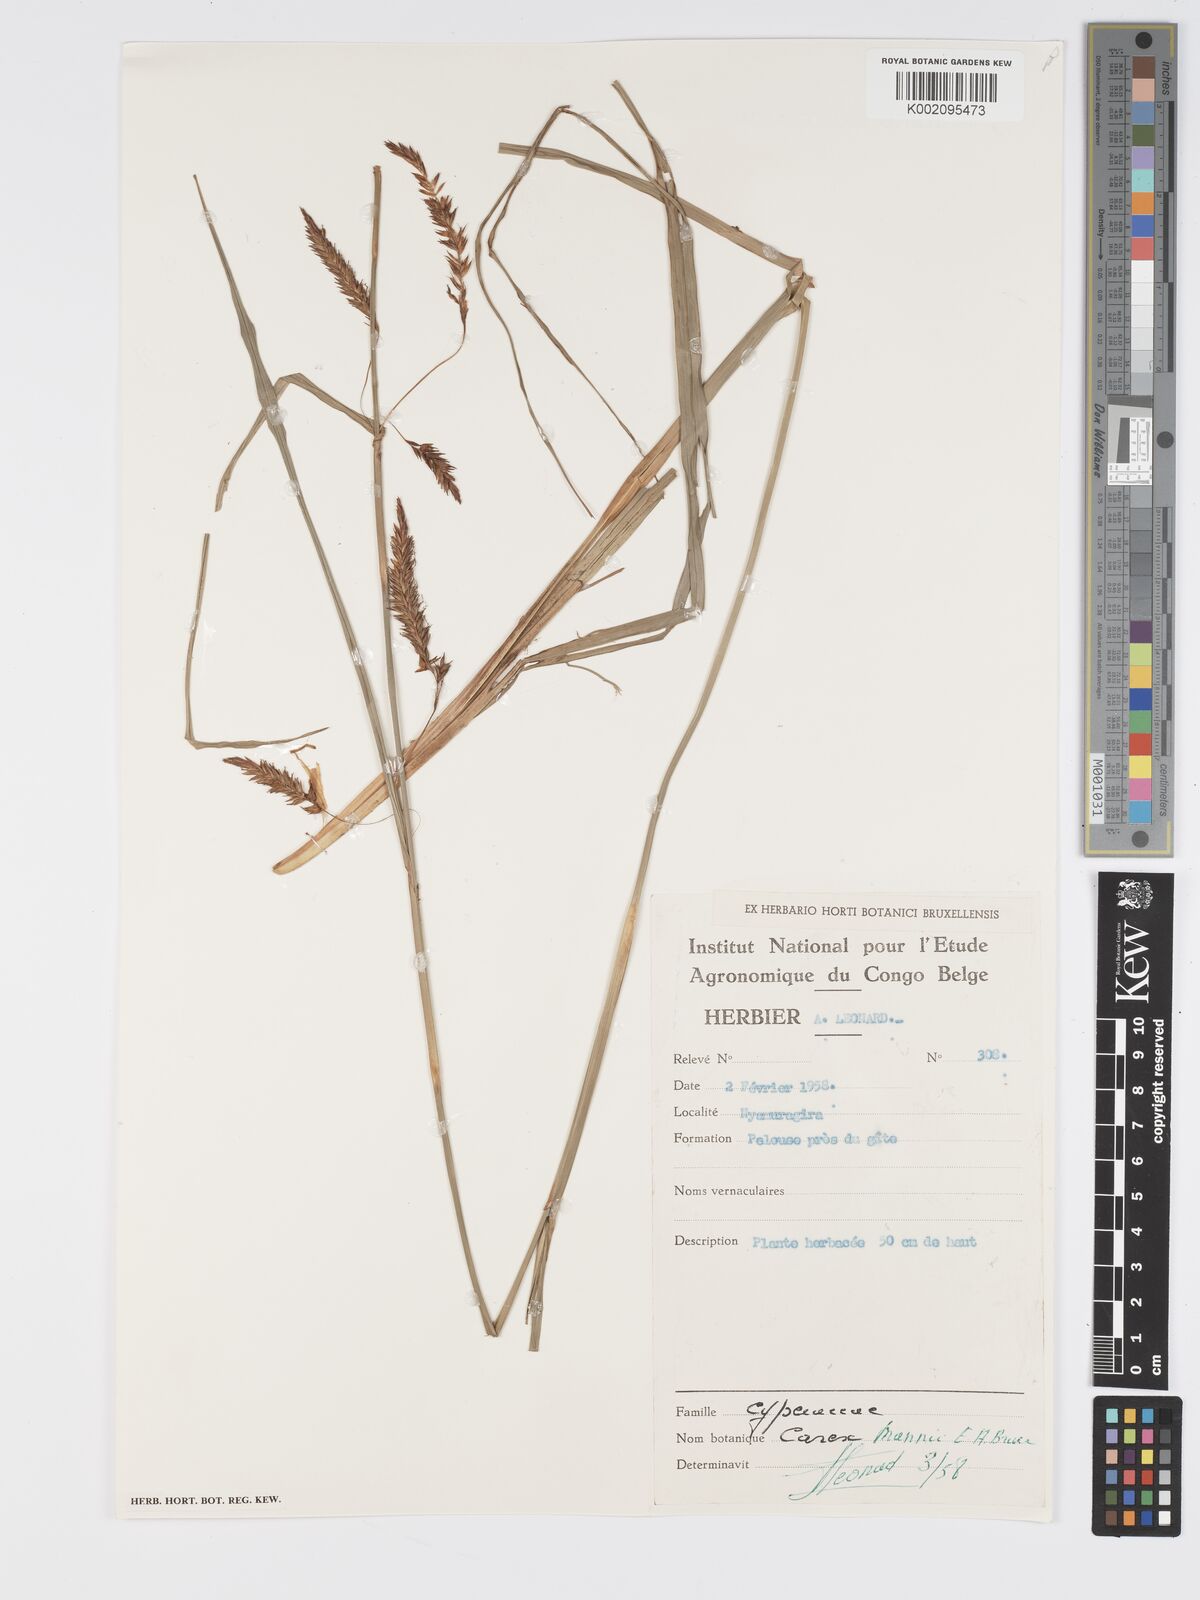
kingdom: Plantae
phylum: Tracheophyta
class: Liliopsida
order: Poales
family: Cyperaceae
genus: Carex
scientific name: Carex mildbraediana
